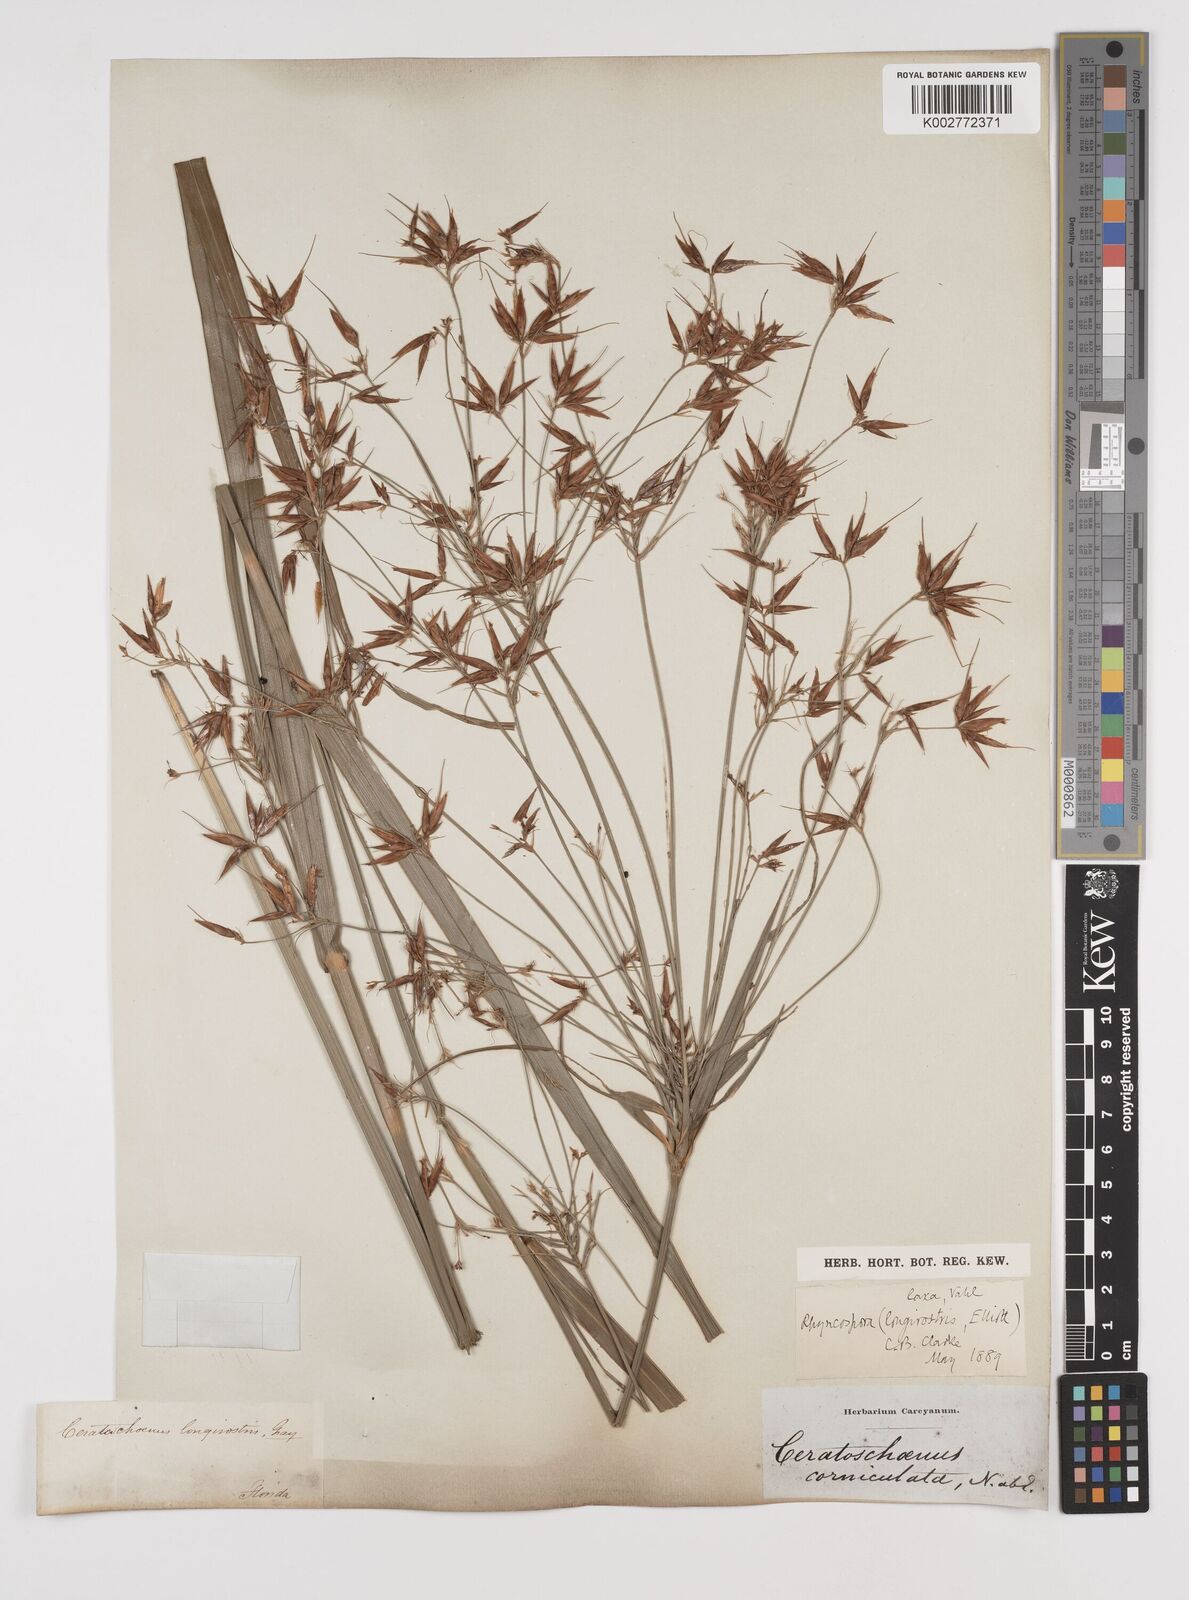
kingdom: Plantae
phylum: Tracheophyta
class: Liliopsida
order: Poales
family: Cyperaceae
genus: Rhynchospora
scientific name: Rhynchospora corniculata
